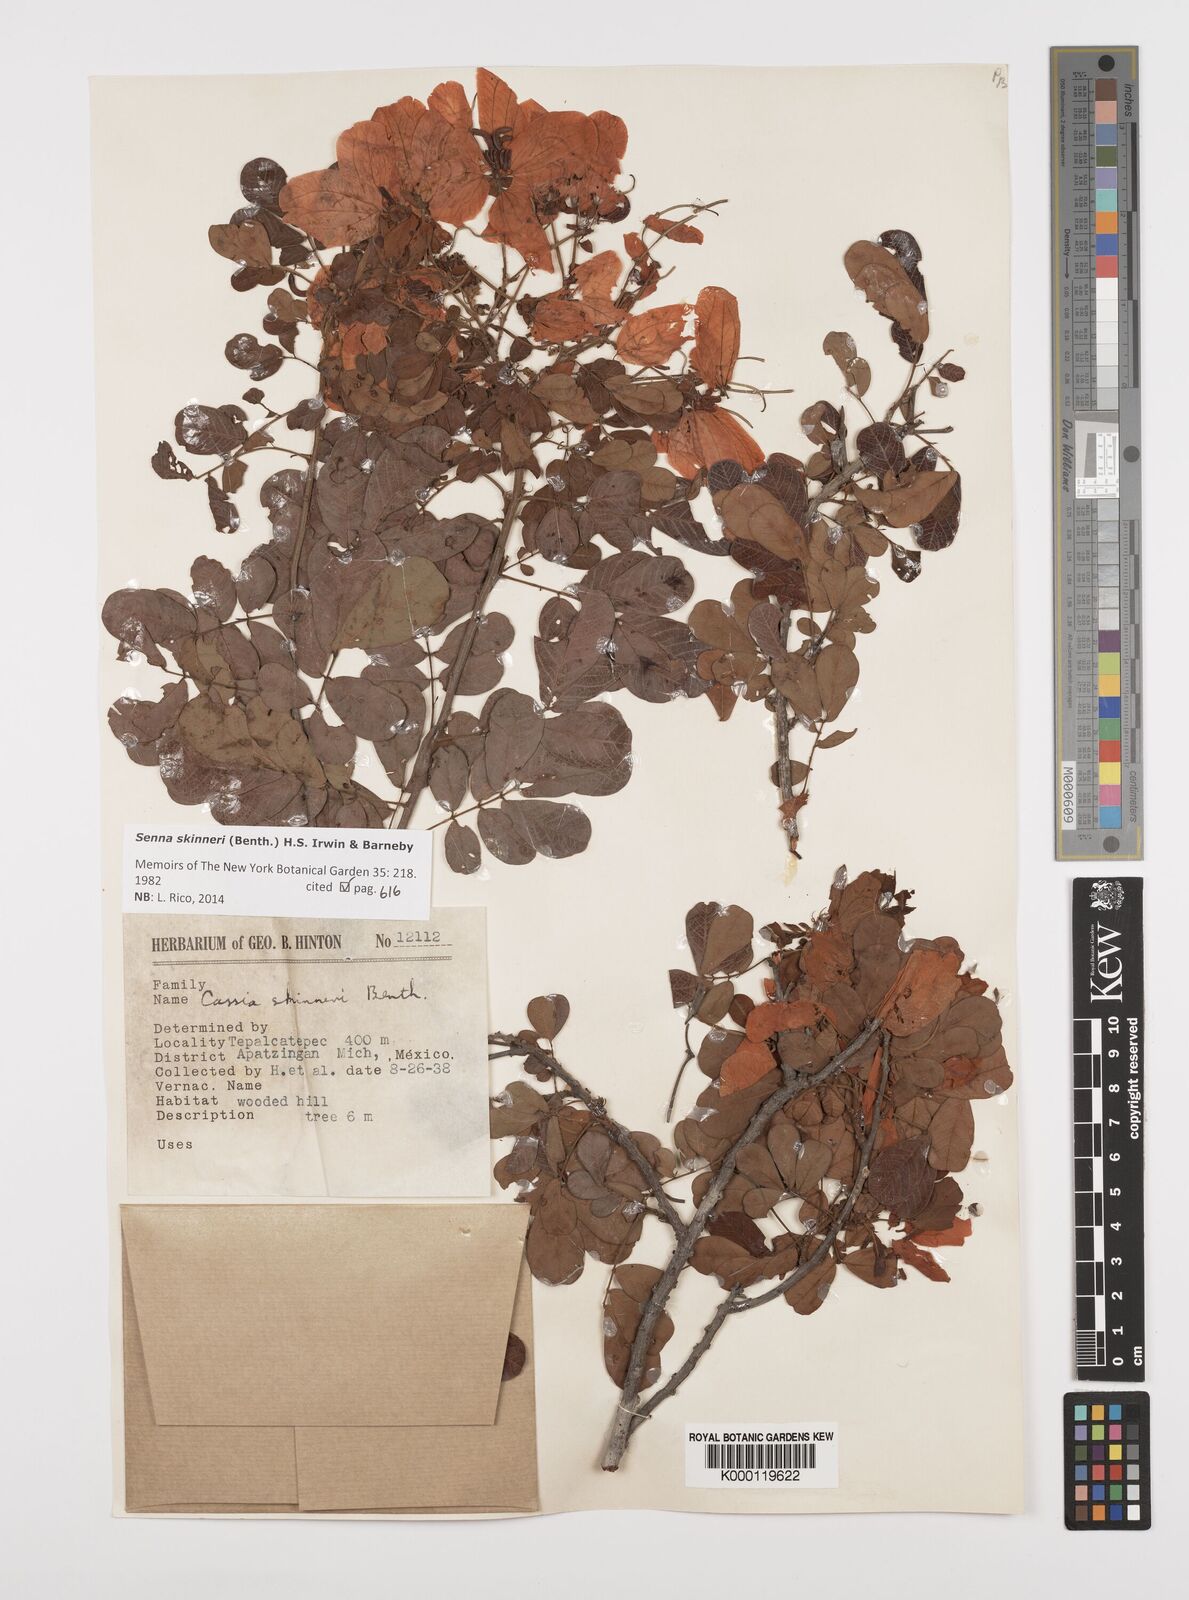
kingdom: Plantae
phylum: Tracheophyta
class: Magnoliopsida
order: Fabales
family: Fabaceae
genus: Senna
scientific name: Senna skinneri
